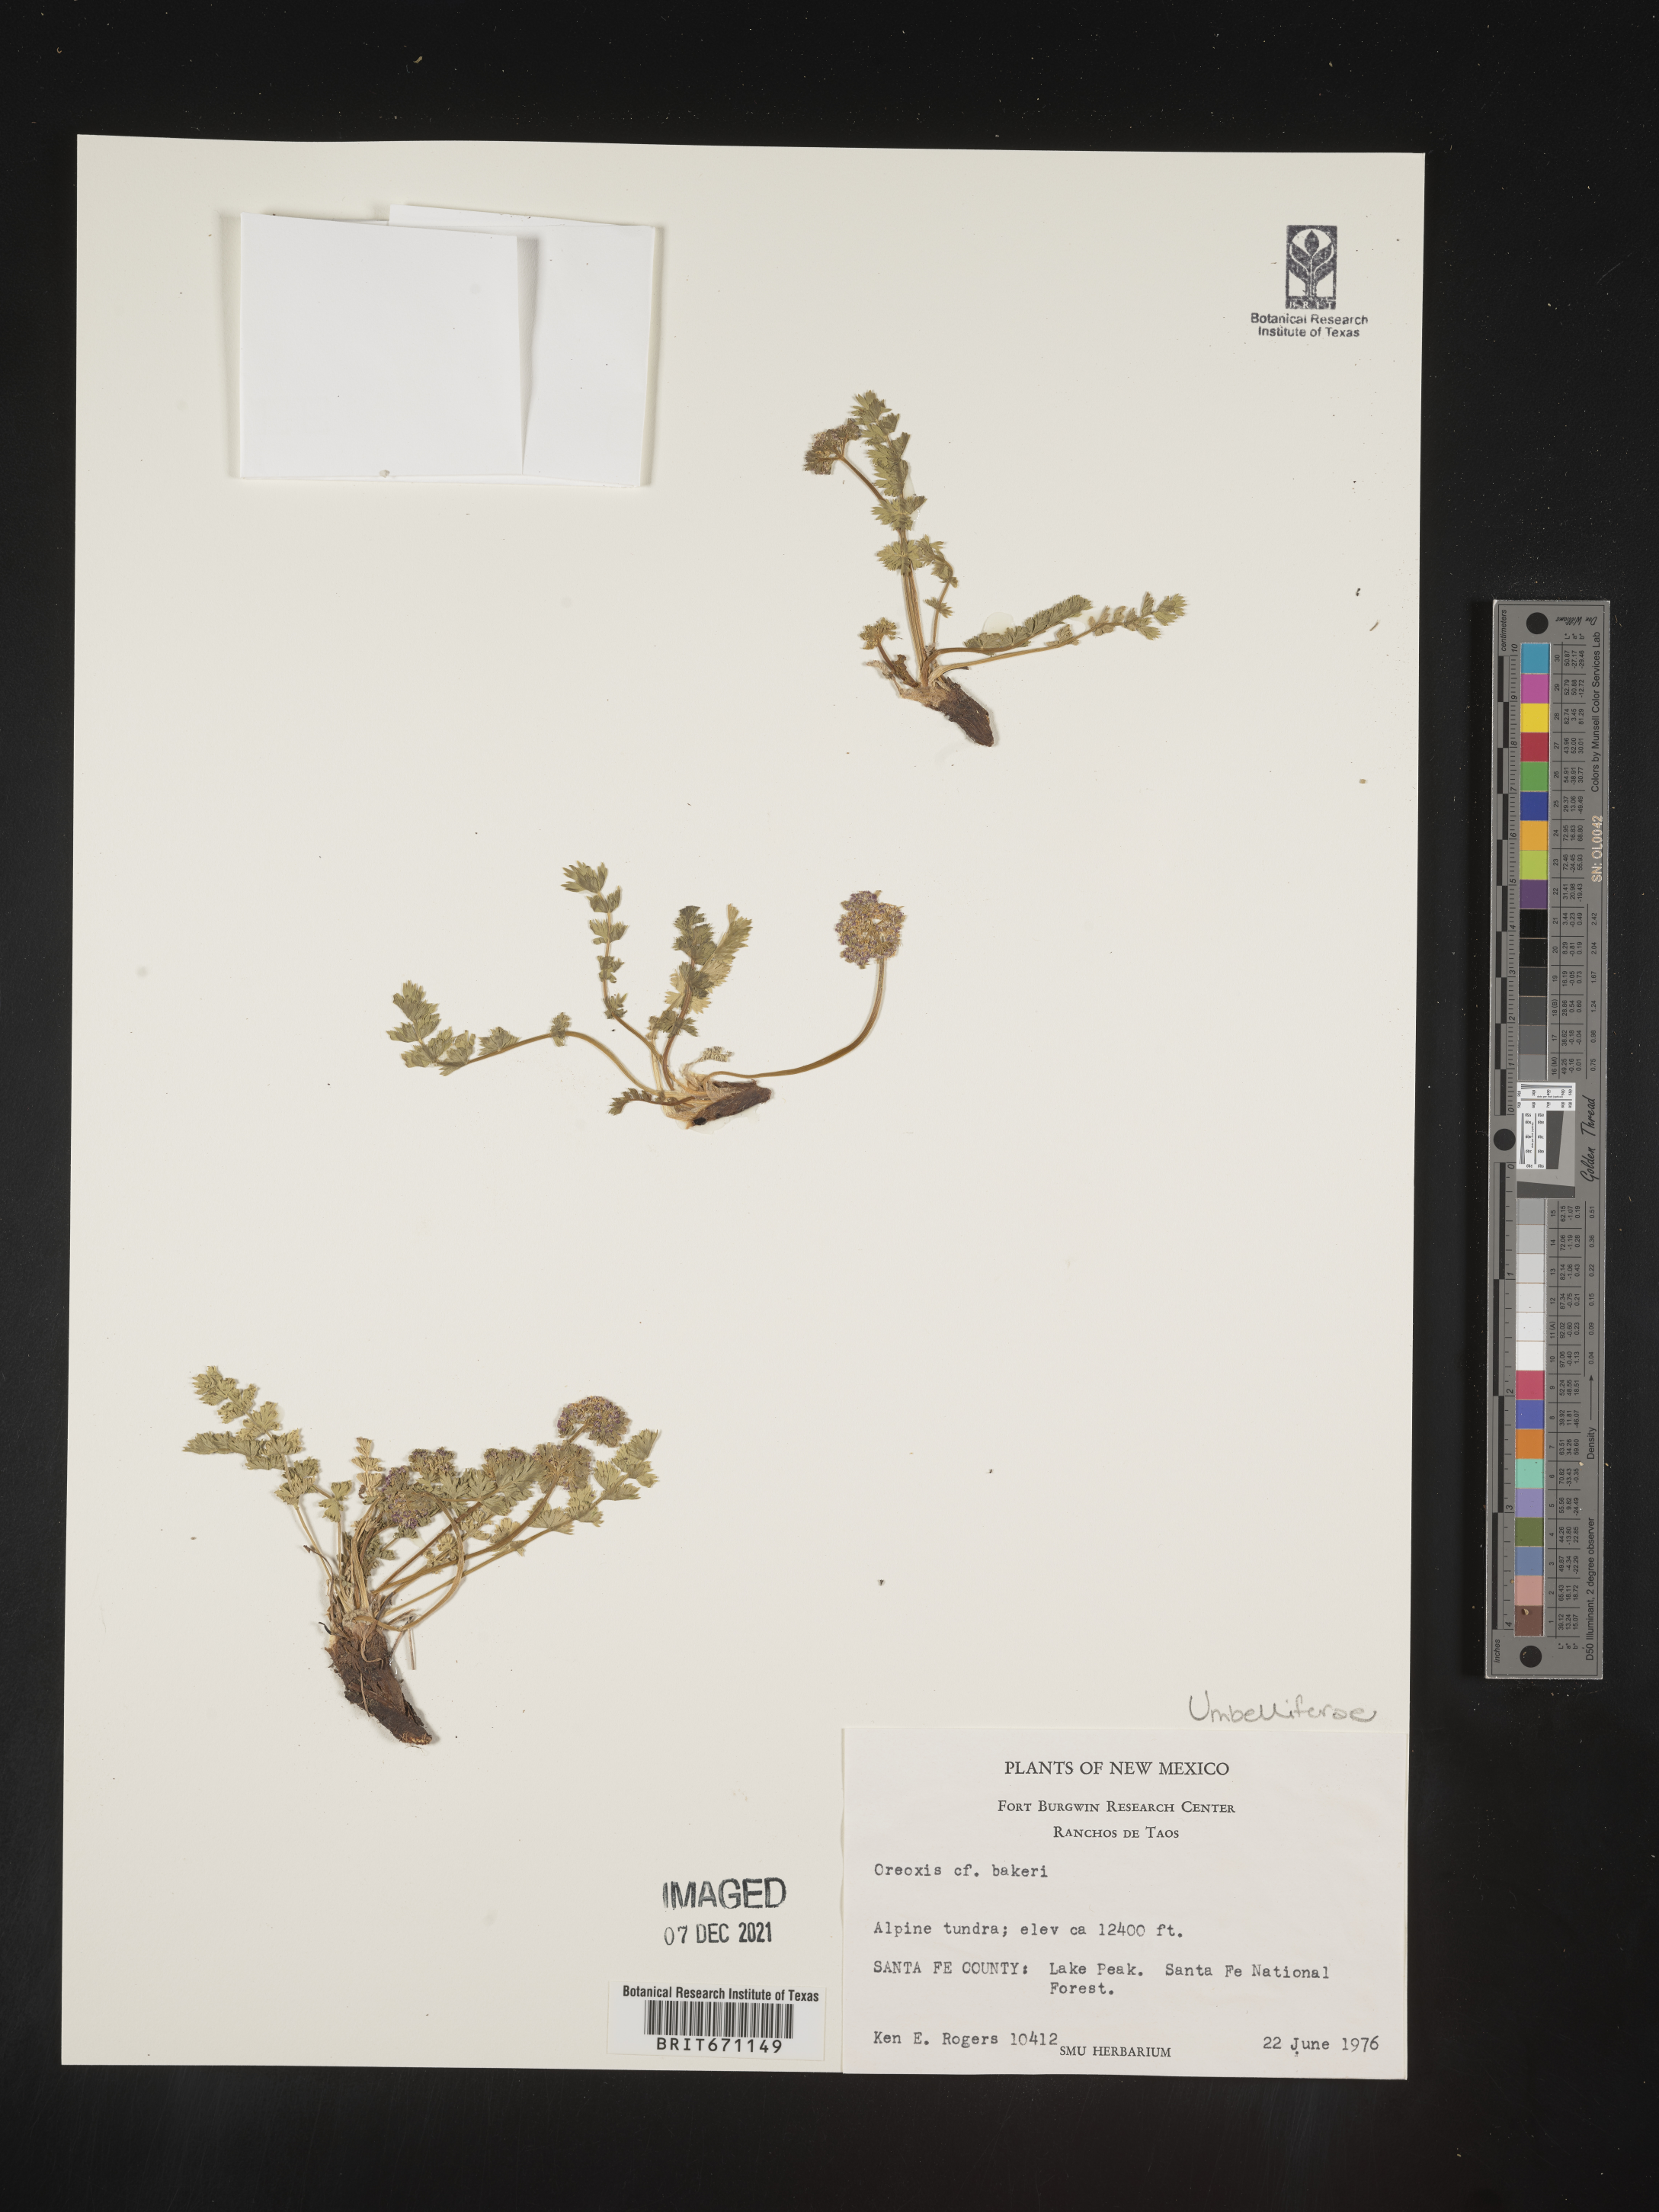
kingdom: Plantae
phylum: Tracheophyta
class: Magnoliopsida
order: Apiales
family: Apiaceae
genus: Oreoxis
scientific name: Oreoxis bakeri
